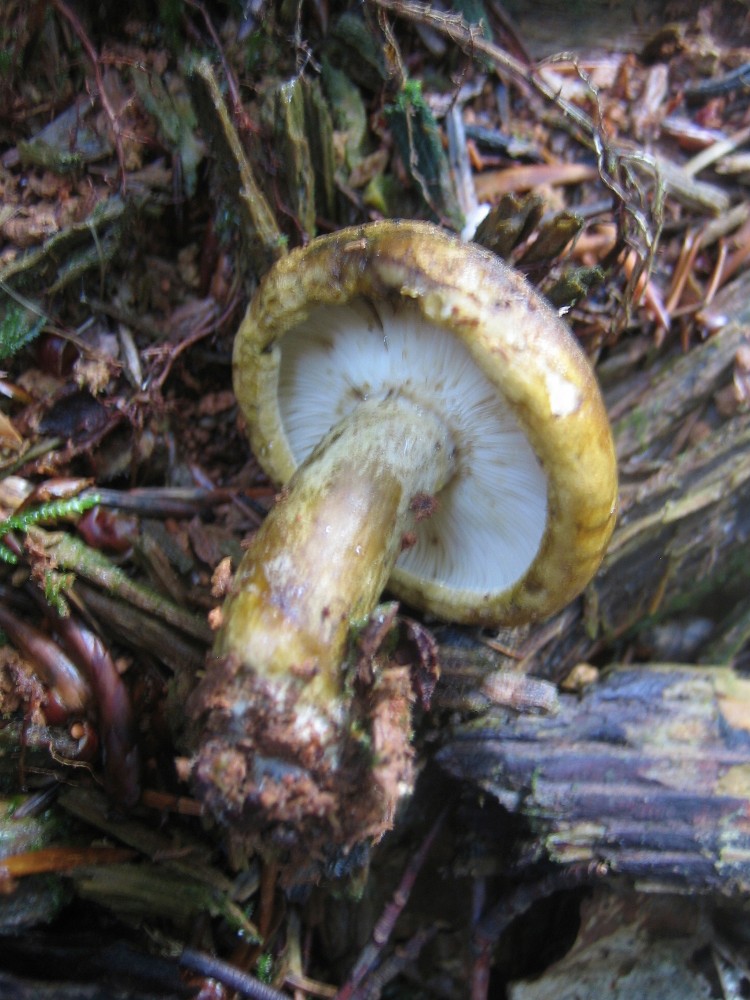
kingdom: Fungi
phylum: Basidiomycota
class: Agaricomycetes
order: Russulales
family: Russulaceae
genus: Lactarius
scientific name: Lactarius necator
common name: manddraber-mælkehat
